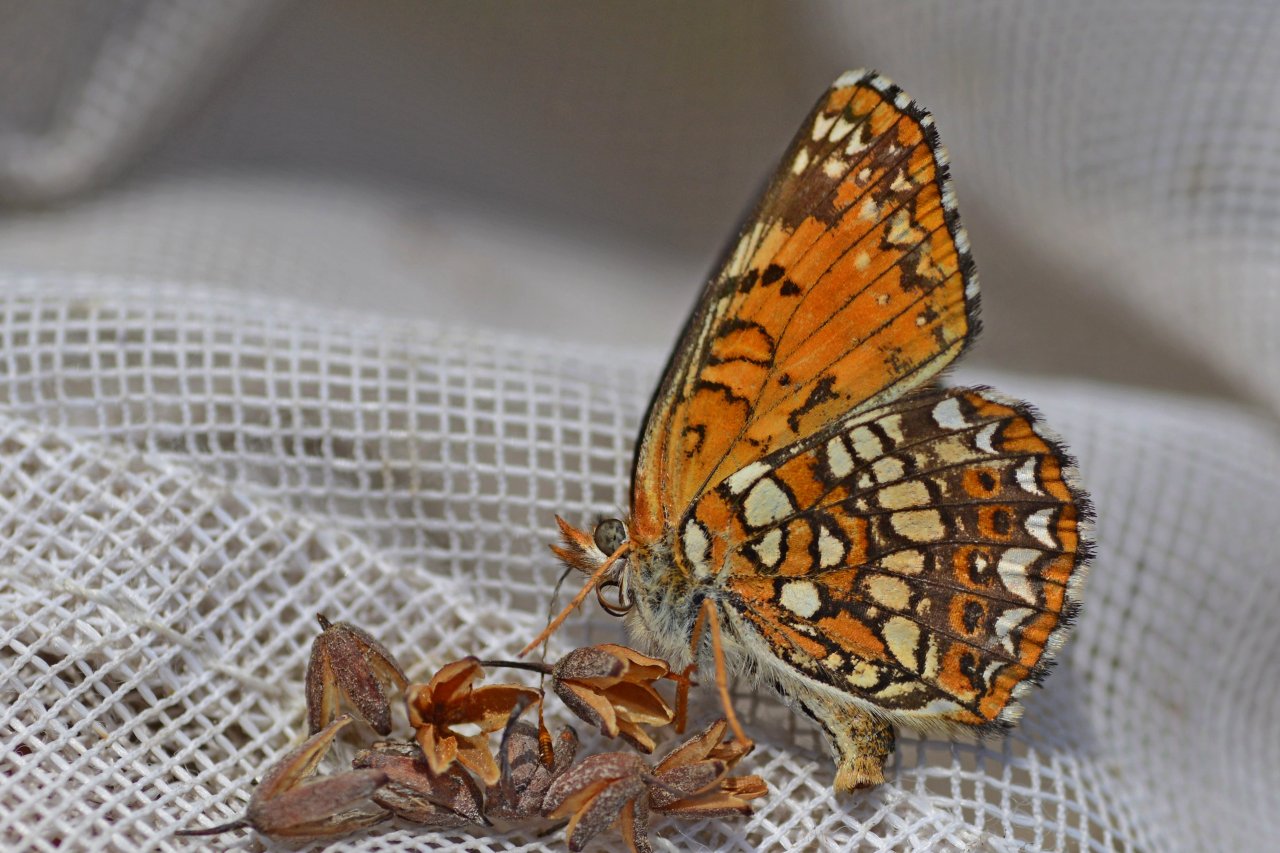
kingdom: Animalia
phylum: Arthropoda
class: Insecta
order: Lepidoptera
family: Nymphalidae
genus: Chlosyne
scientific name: Chlosyne harrisii
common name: Harris's Checkerspot
